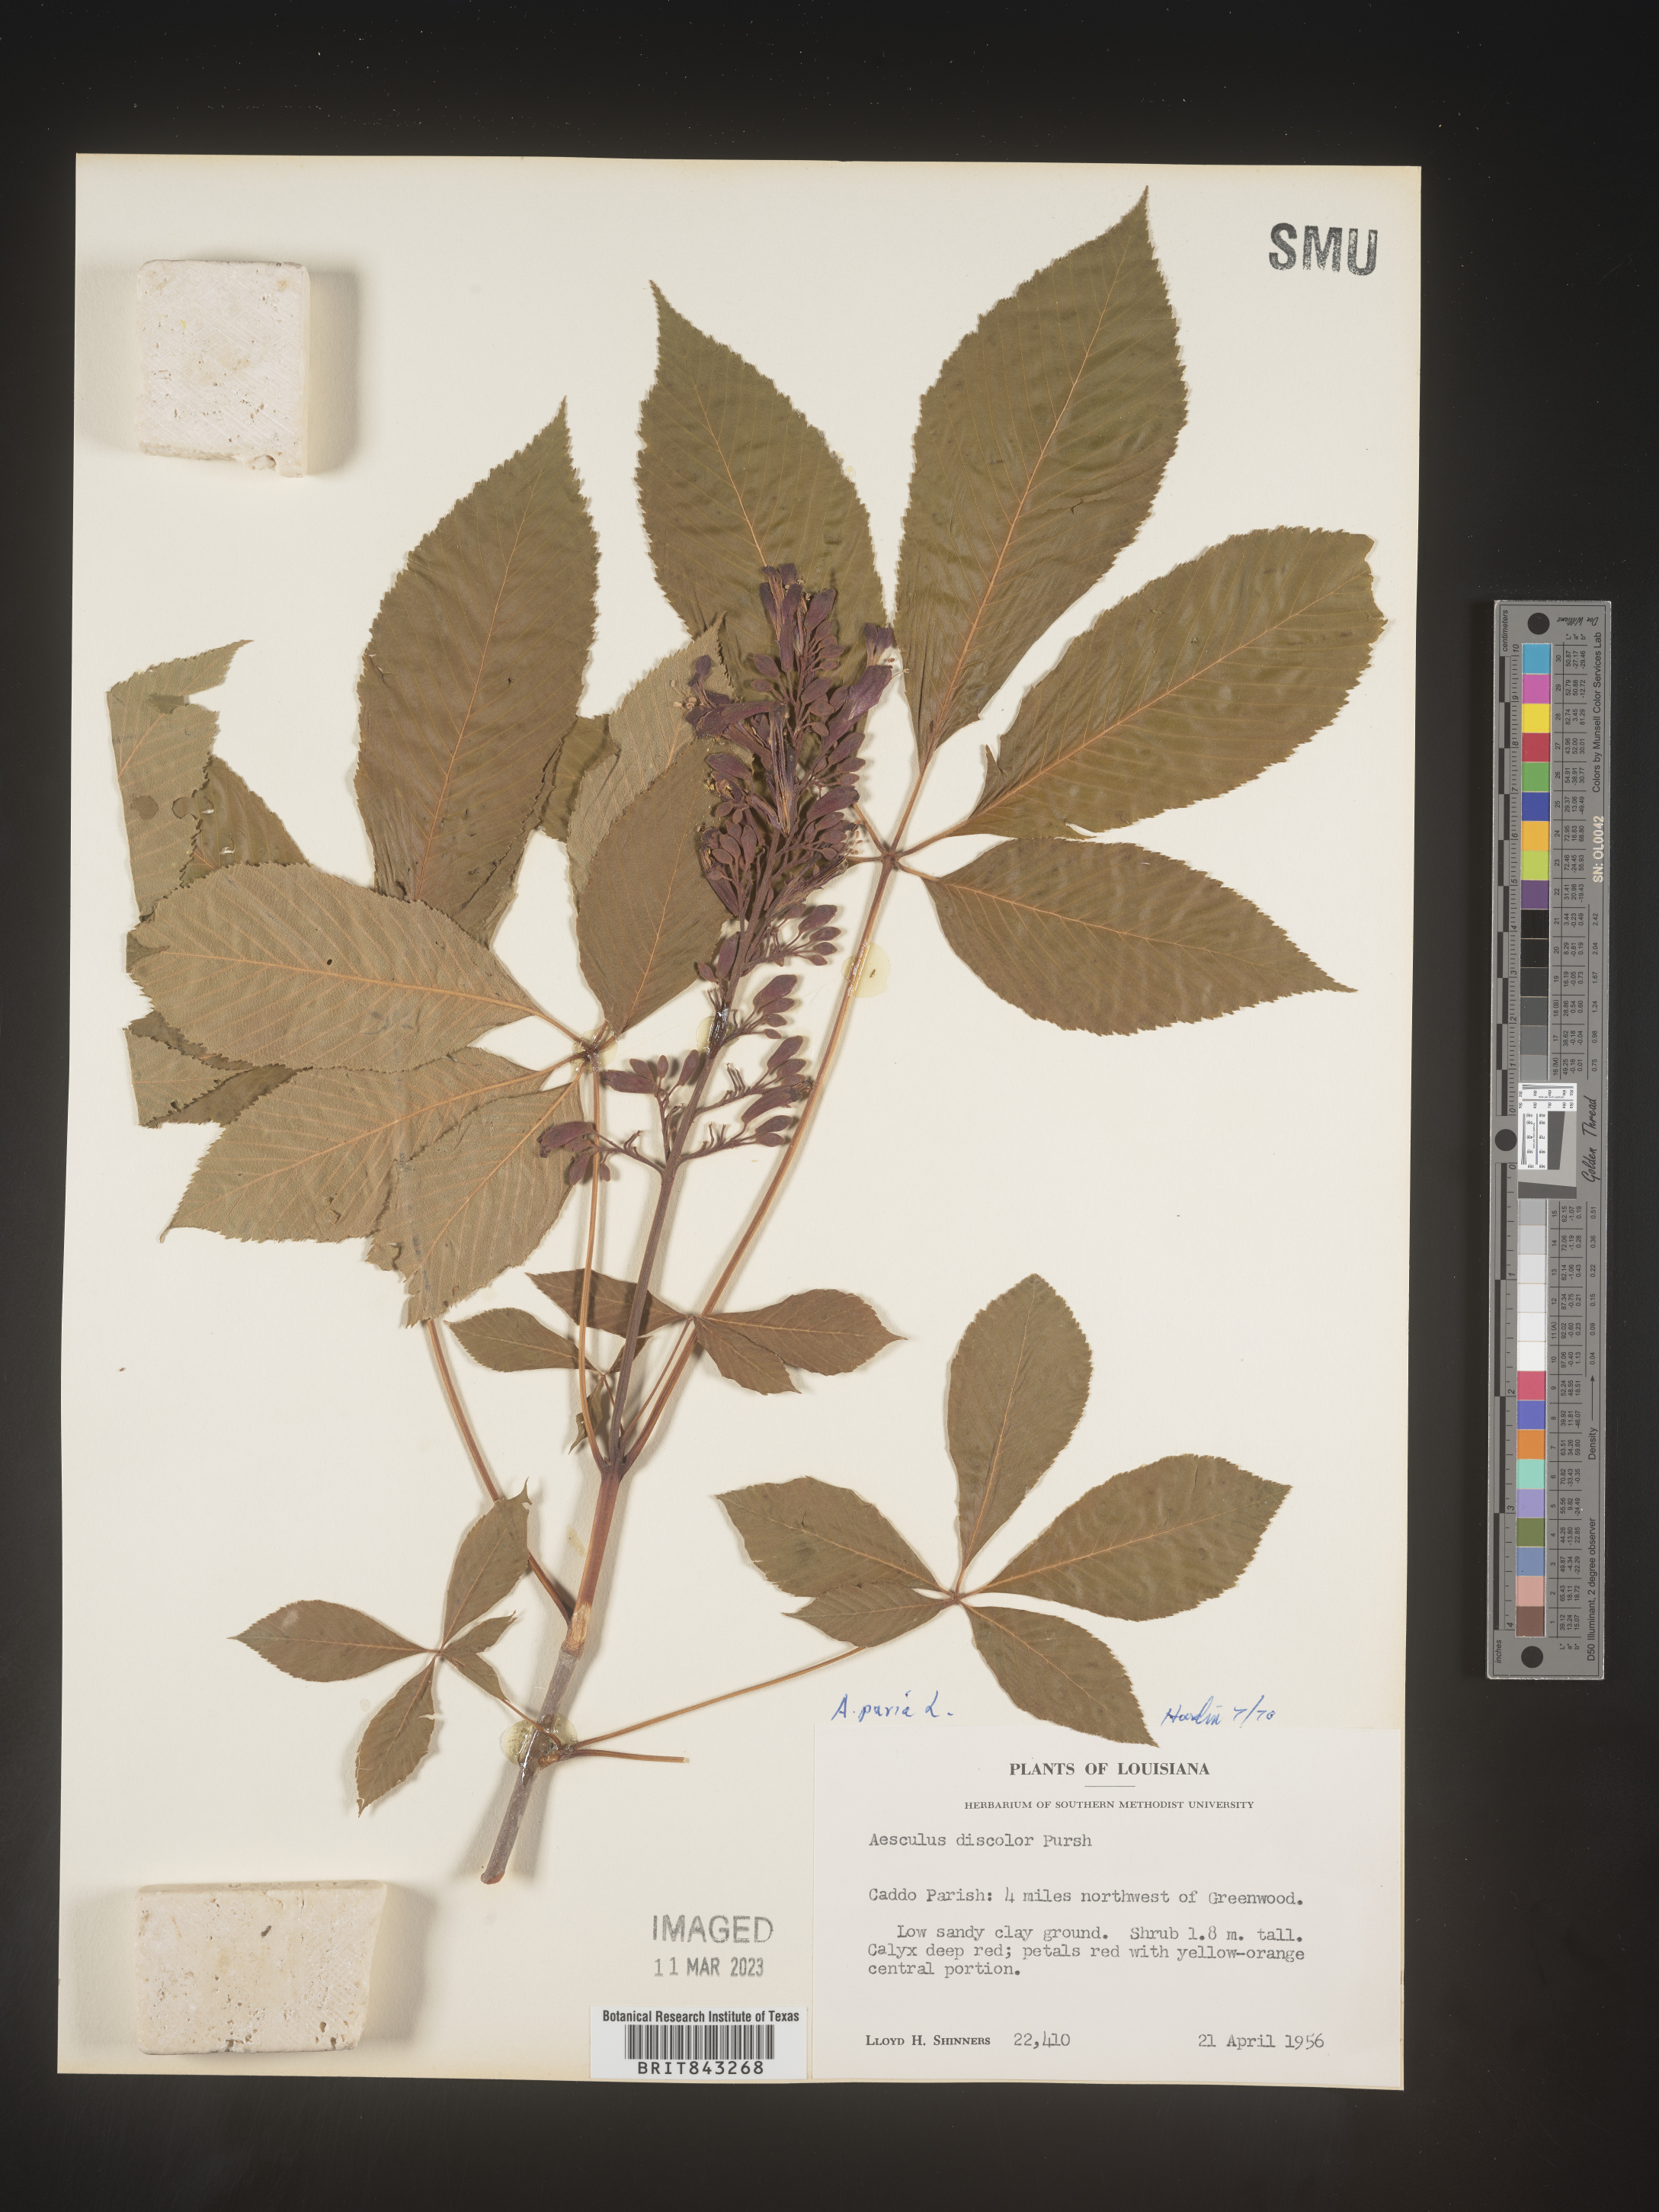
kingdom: Plantae
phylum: Tracheophyta
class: Magnoliopsida
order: Sapindales
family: Sapindaceae
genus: Aesculus
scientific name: Aesculus pavia
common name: Red buckeye
